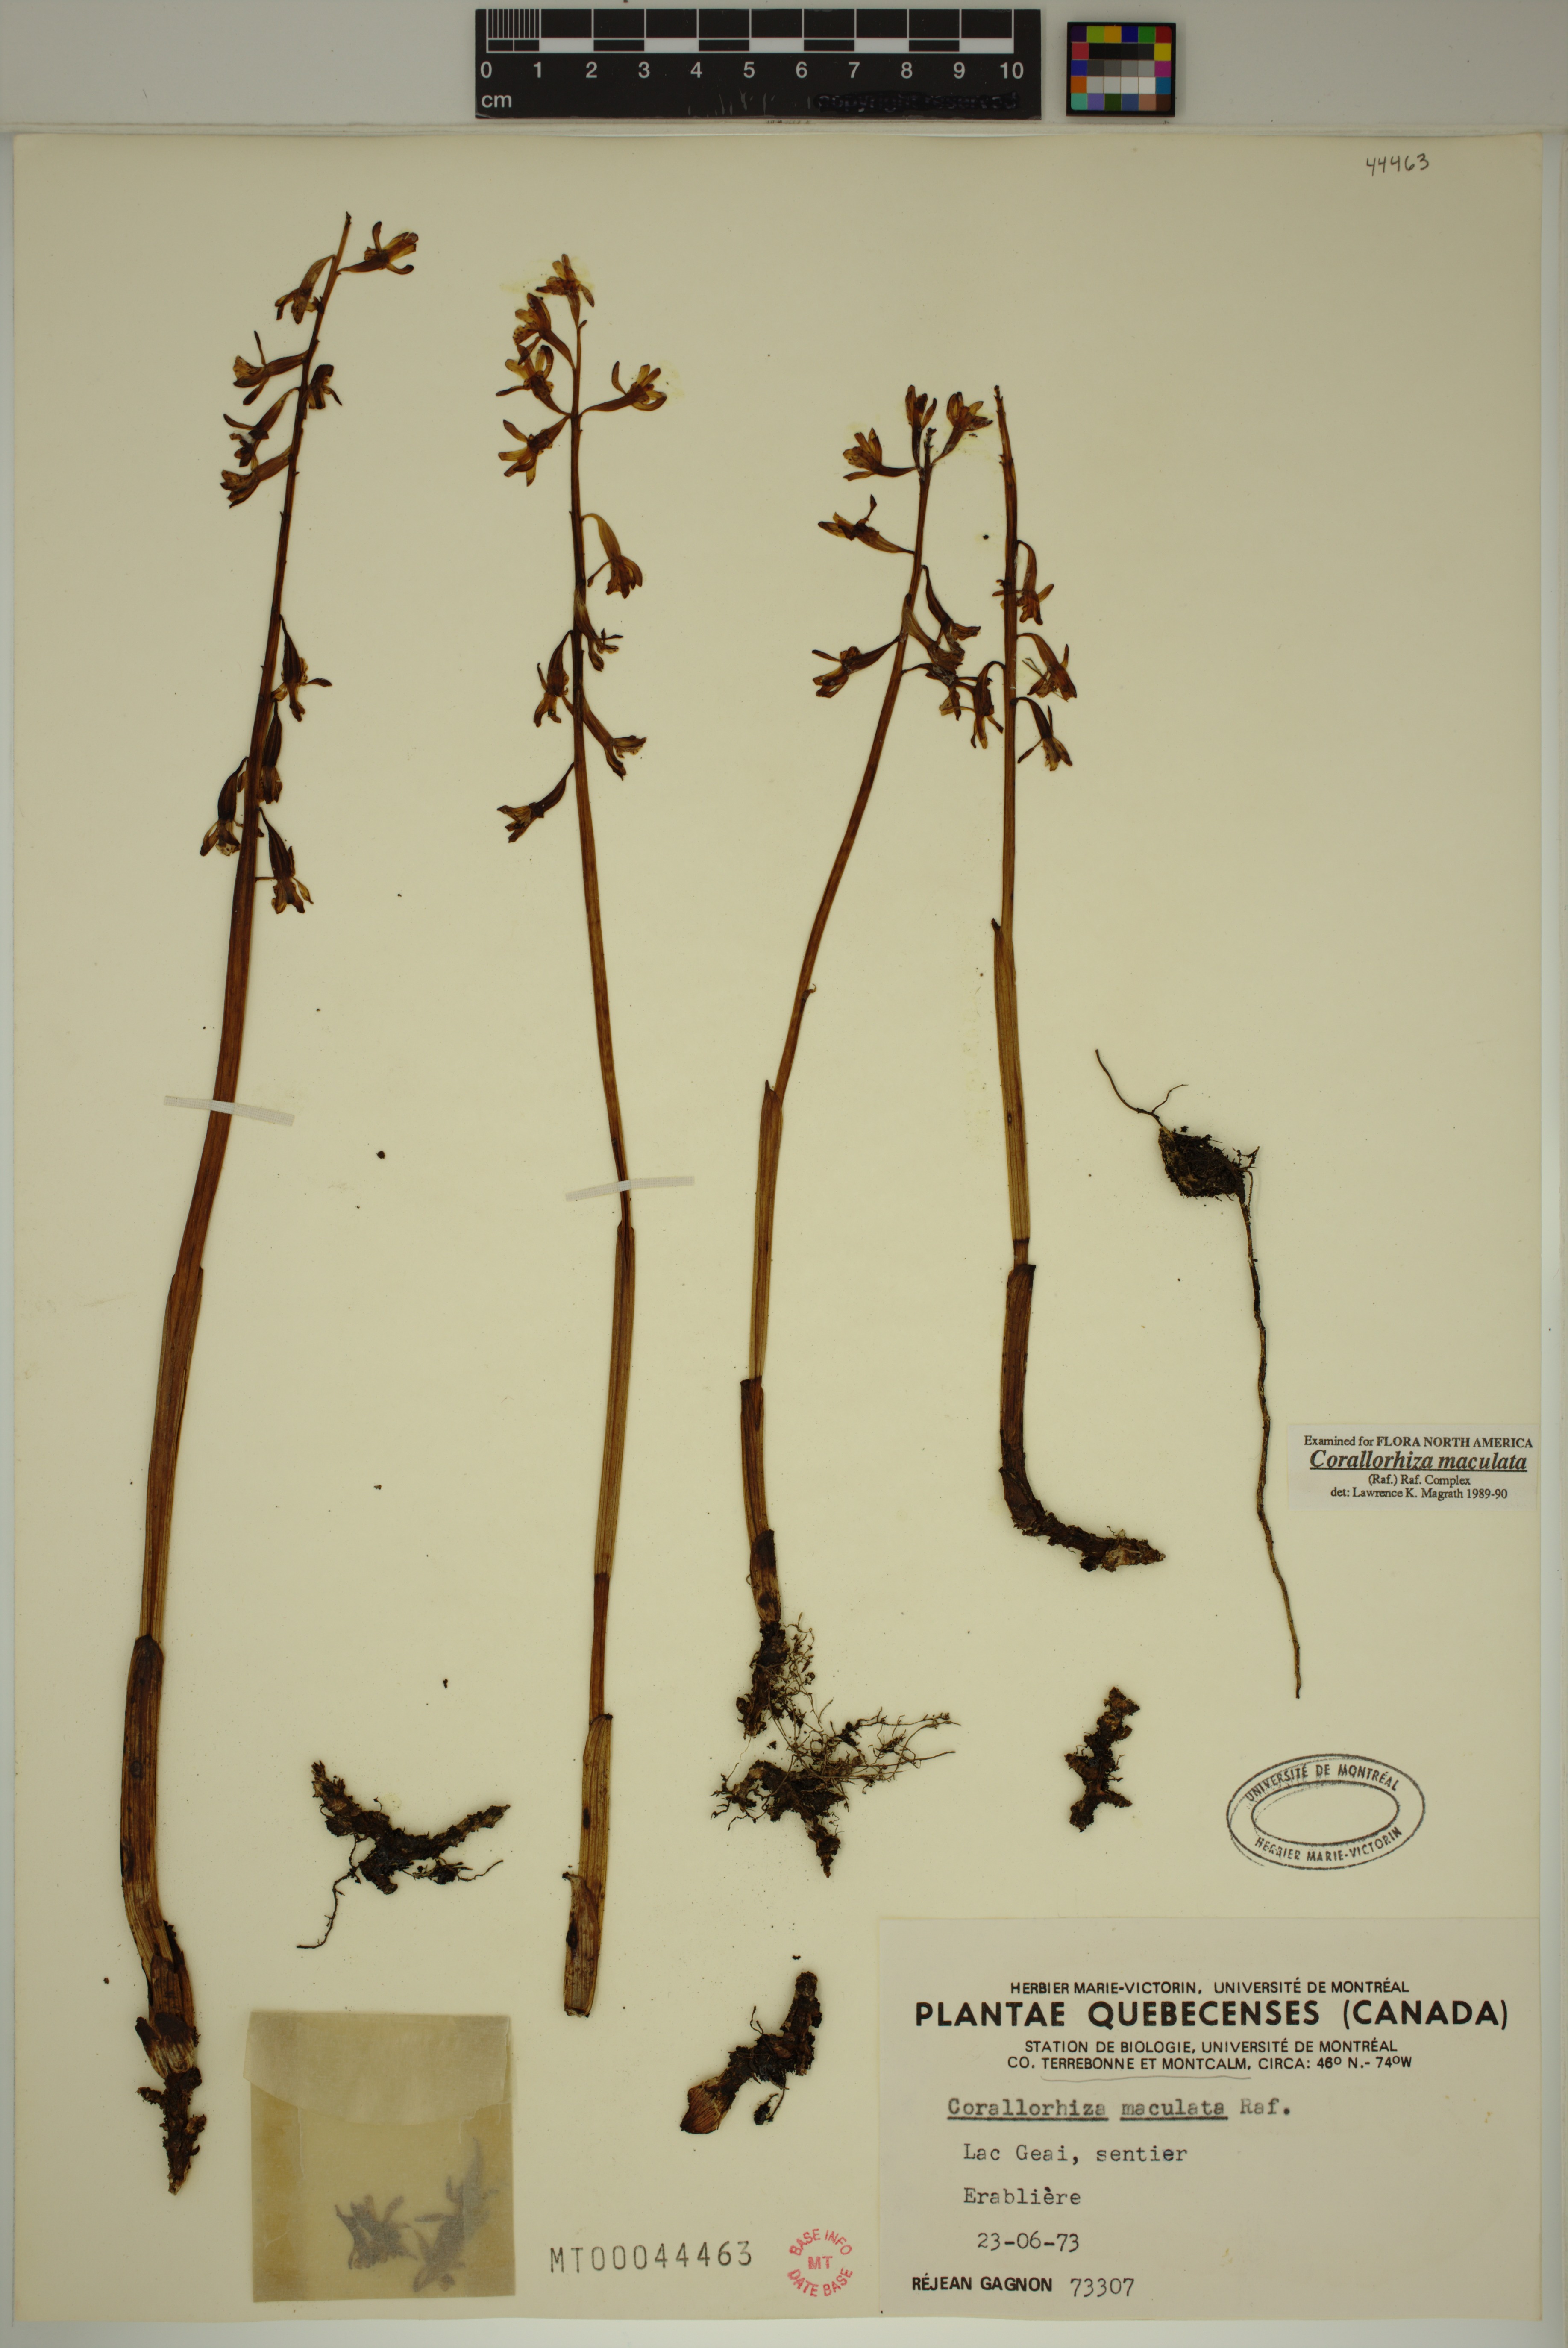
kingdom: Plantae
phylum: Tracheophyta
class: Liliopsida
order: Asparagales
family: Orchidaceae
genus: Corallorhiza
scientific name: Corallorhiza maculata
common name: Spotted coralroot
